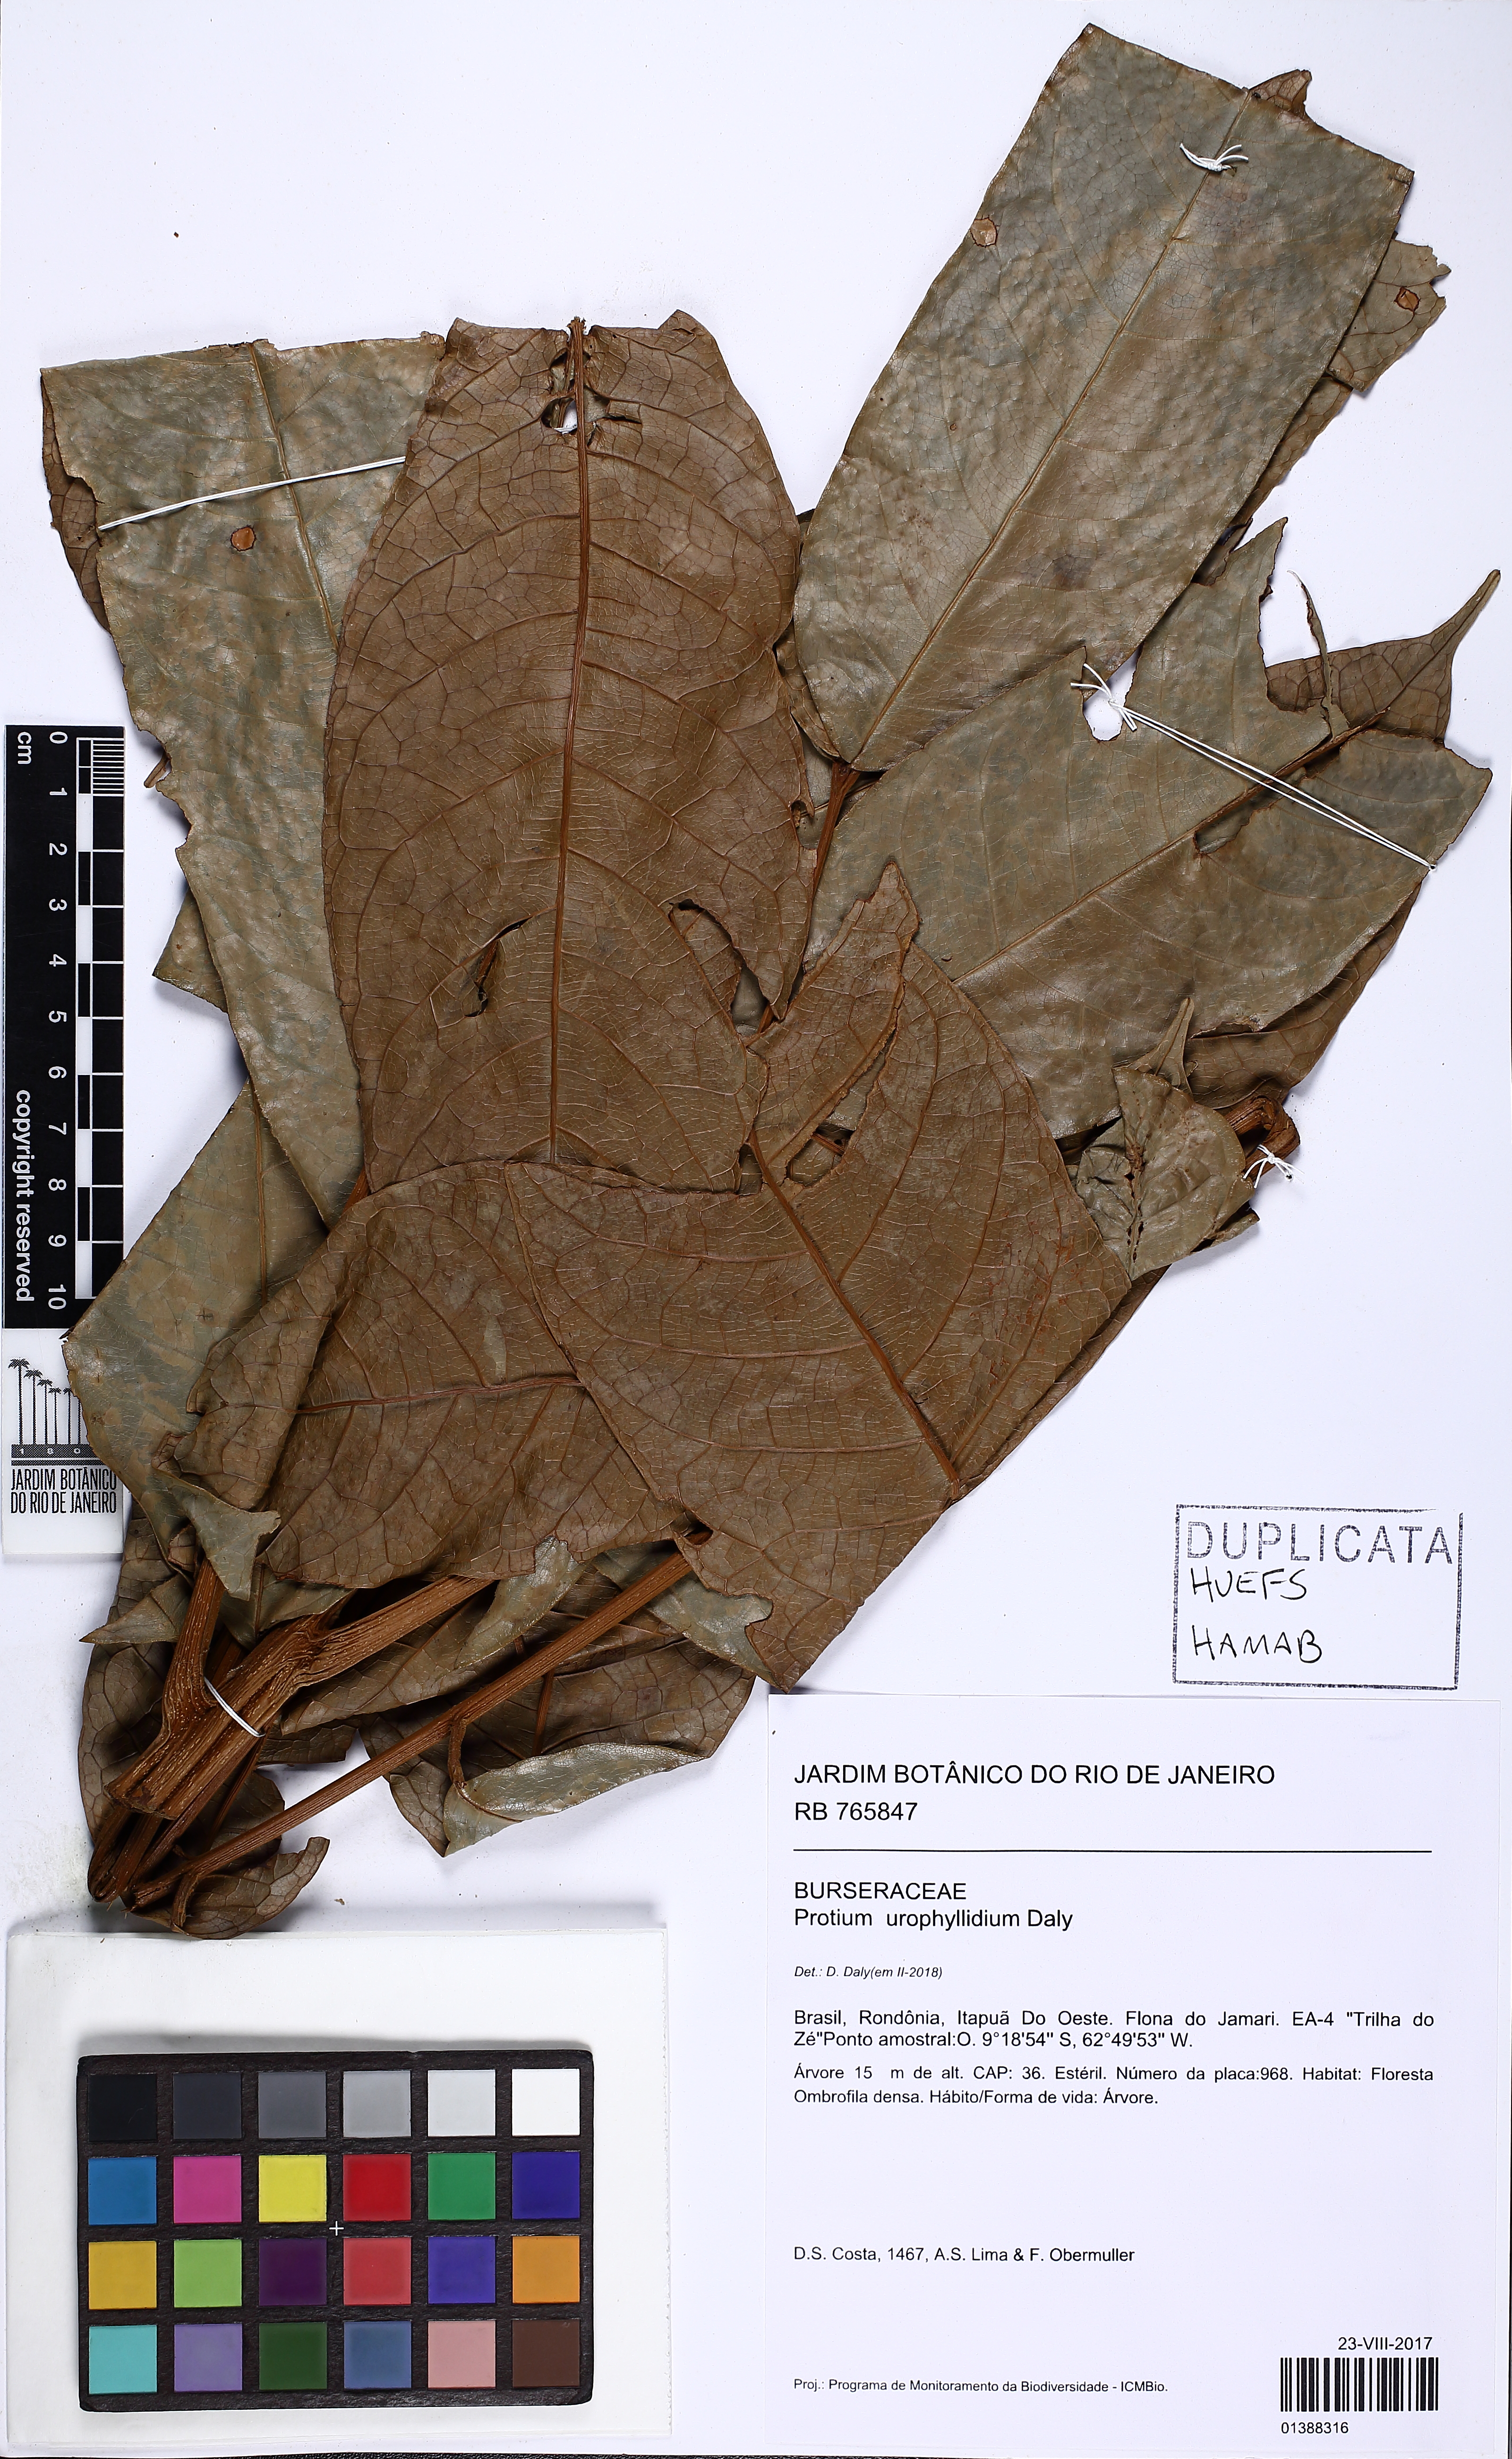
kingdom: Plantae
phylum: Tracheophyta
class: Magnoliopsida
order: Sapindales
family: Burseraceae
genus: Protium
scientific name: Protium urophyllidium
